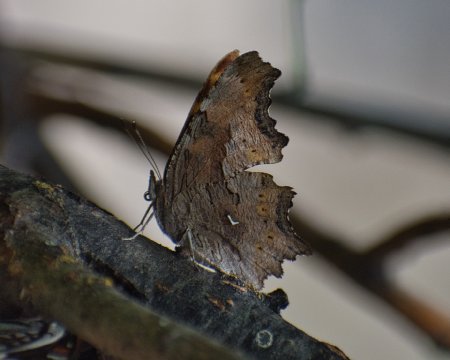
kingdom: Animalia
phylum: Arthropoda
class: Insecta
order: Lepidoptera
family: Nymphalidae
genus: Polygonia
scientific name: Polygonia gracilis
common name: Hoary Comma
